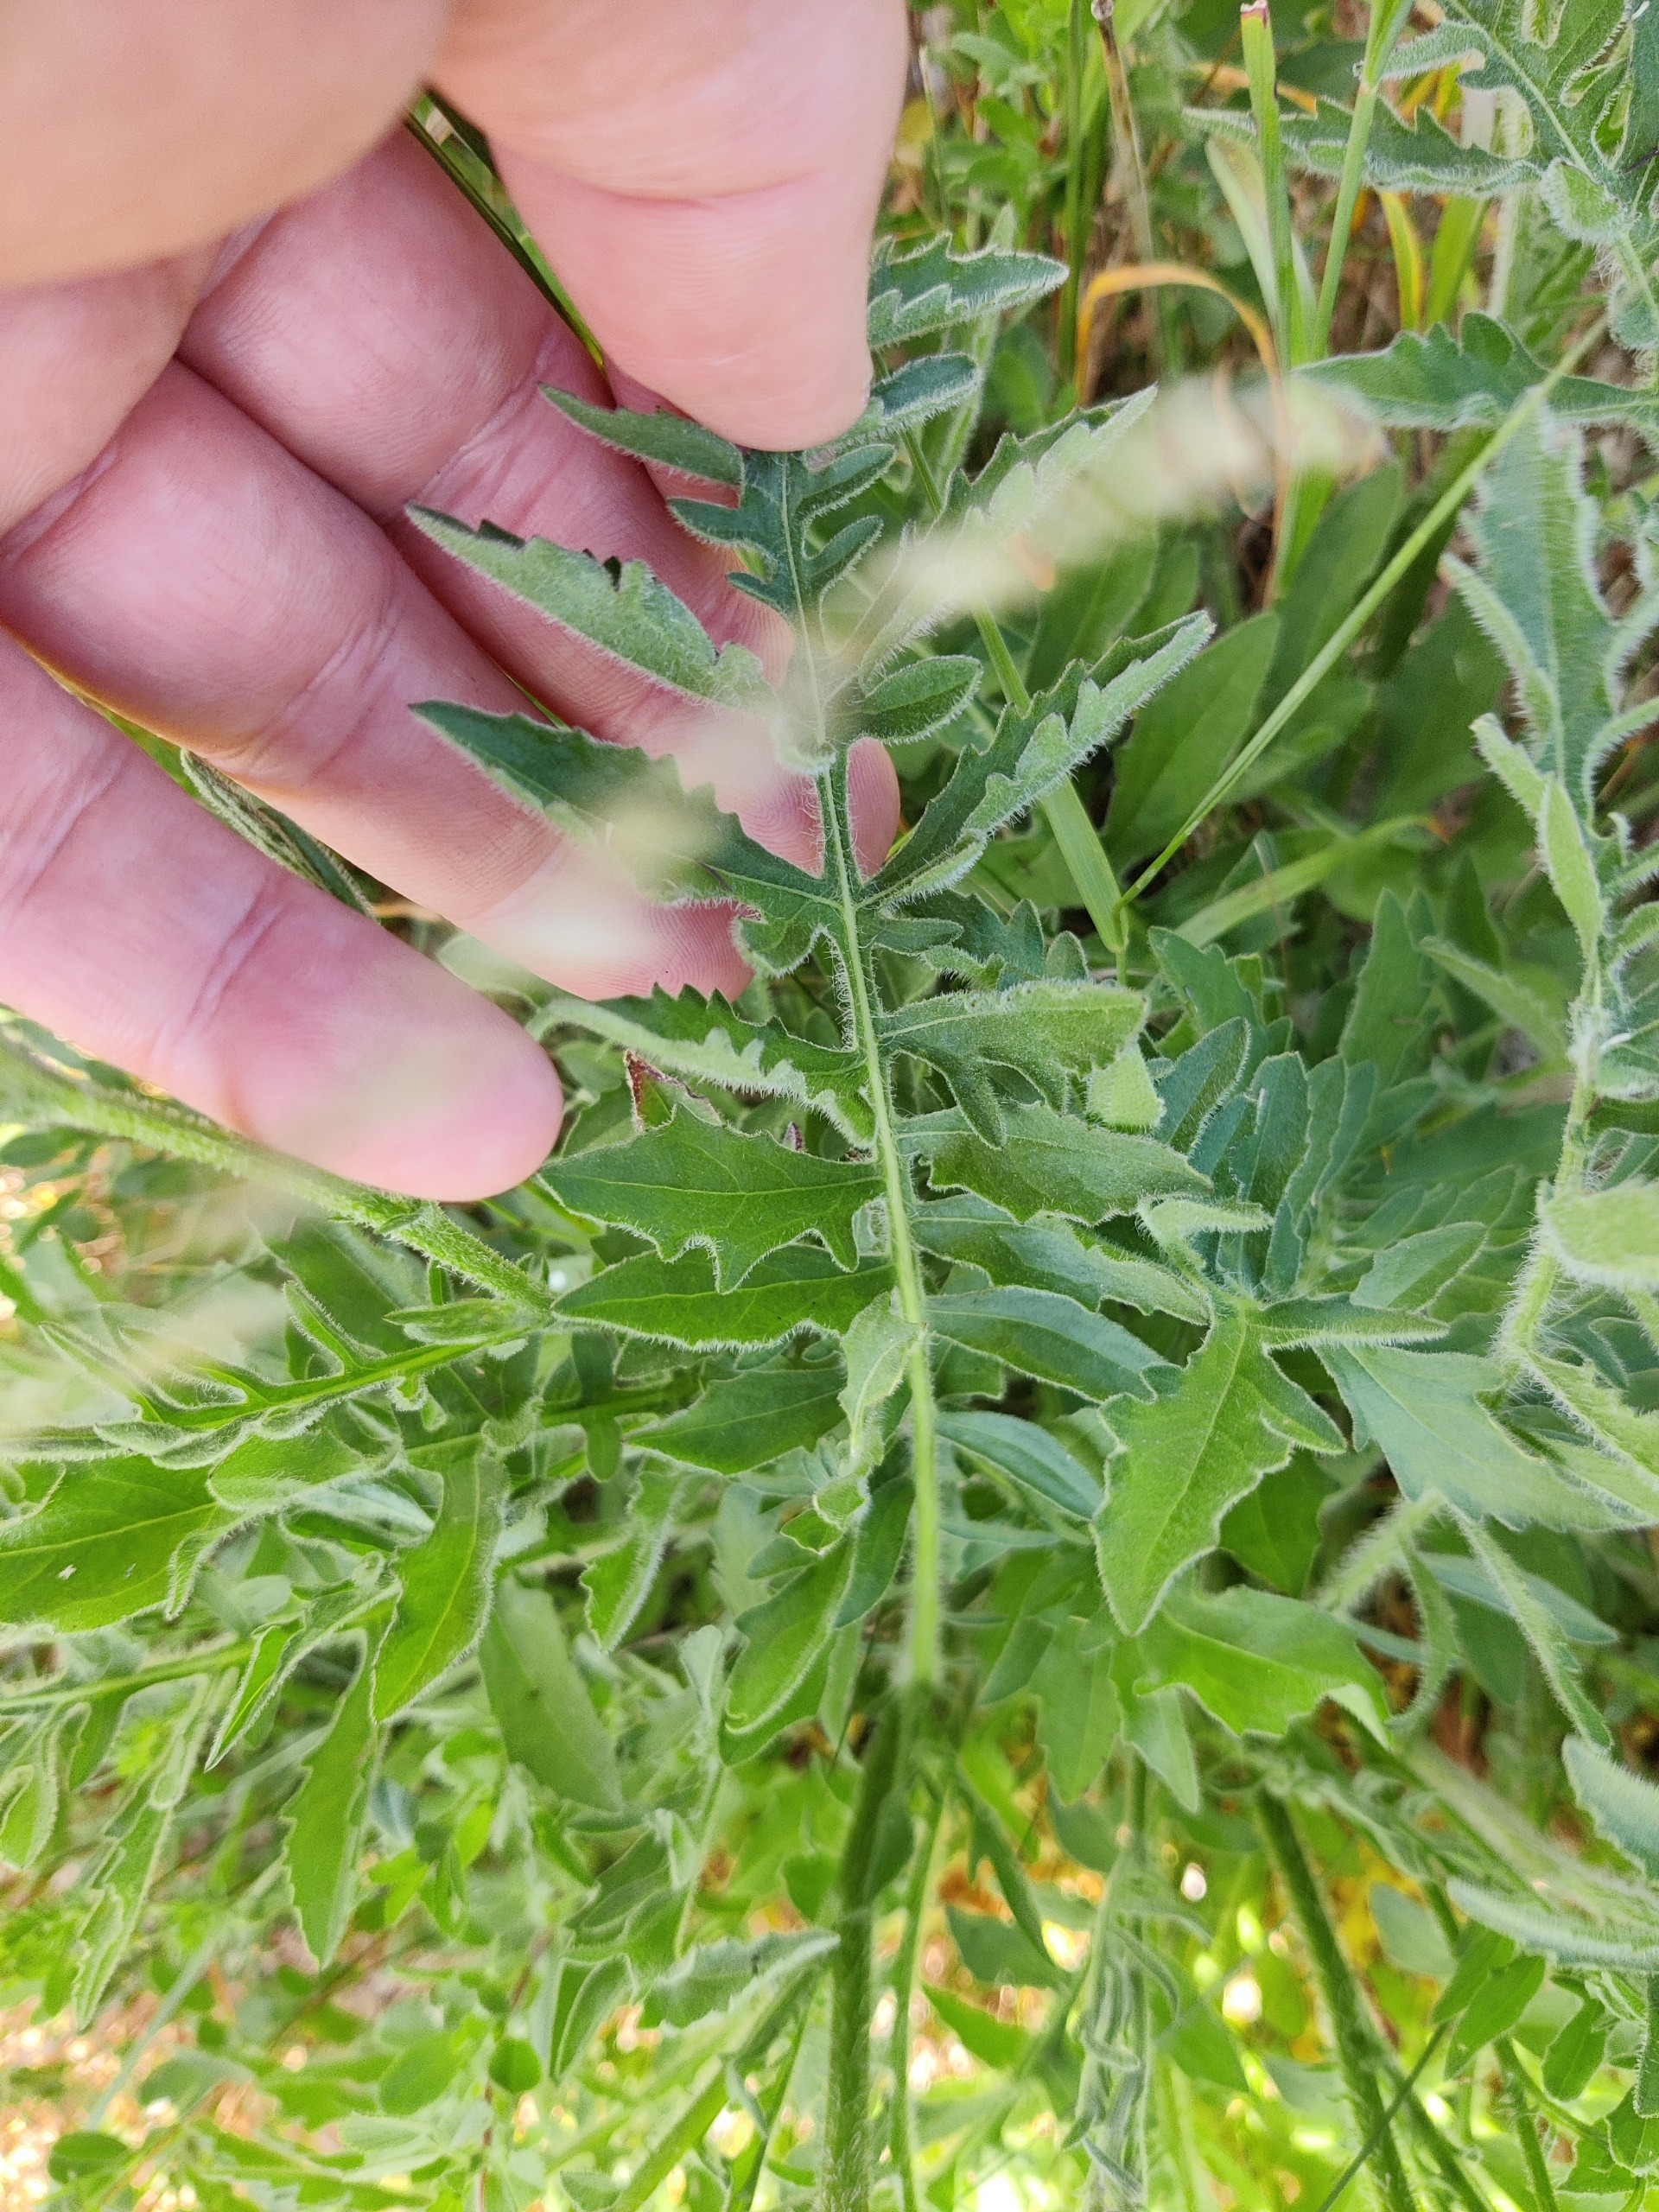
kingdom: Plantae
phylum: Tracheophyta
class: Magnoliopsida
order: Asterales
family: Asteraceae
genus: Centaurea
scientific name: Centaurea scabiosa
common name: Stor knopurt
